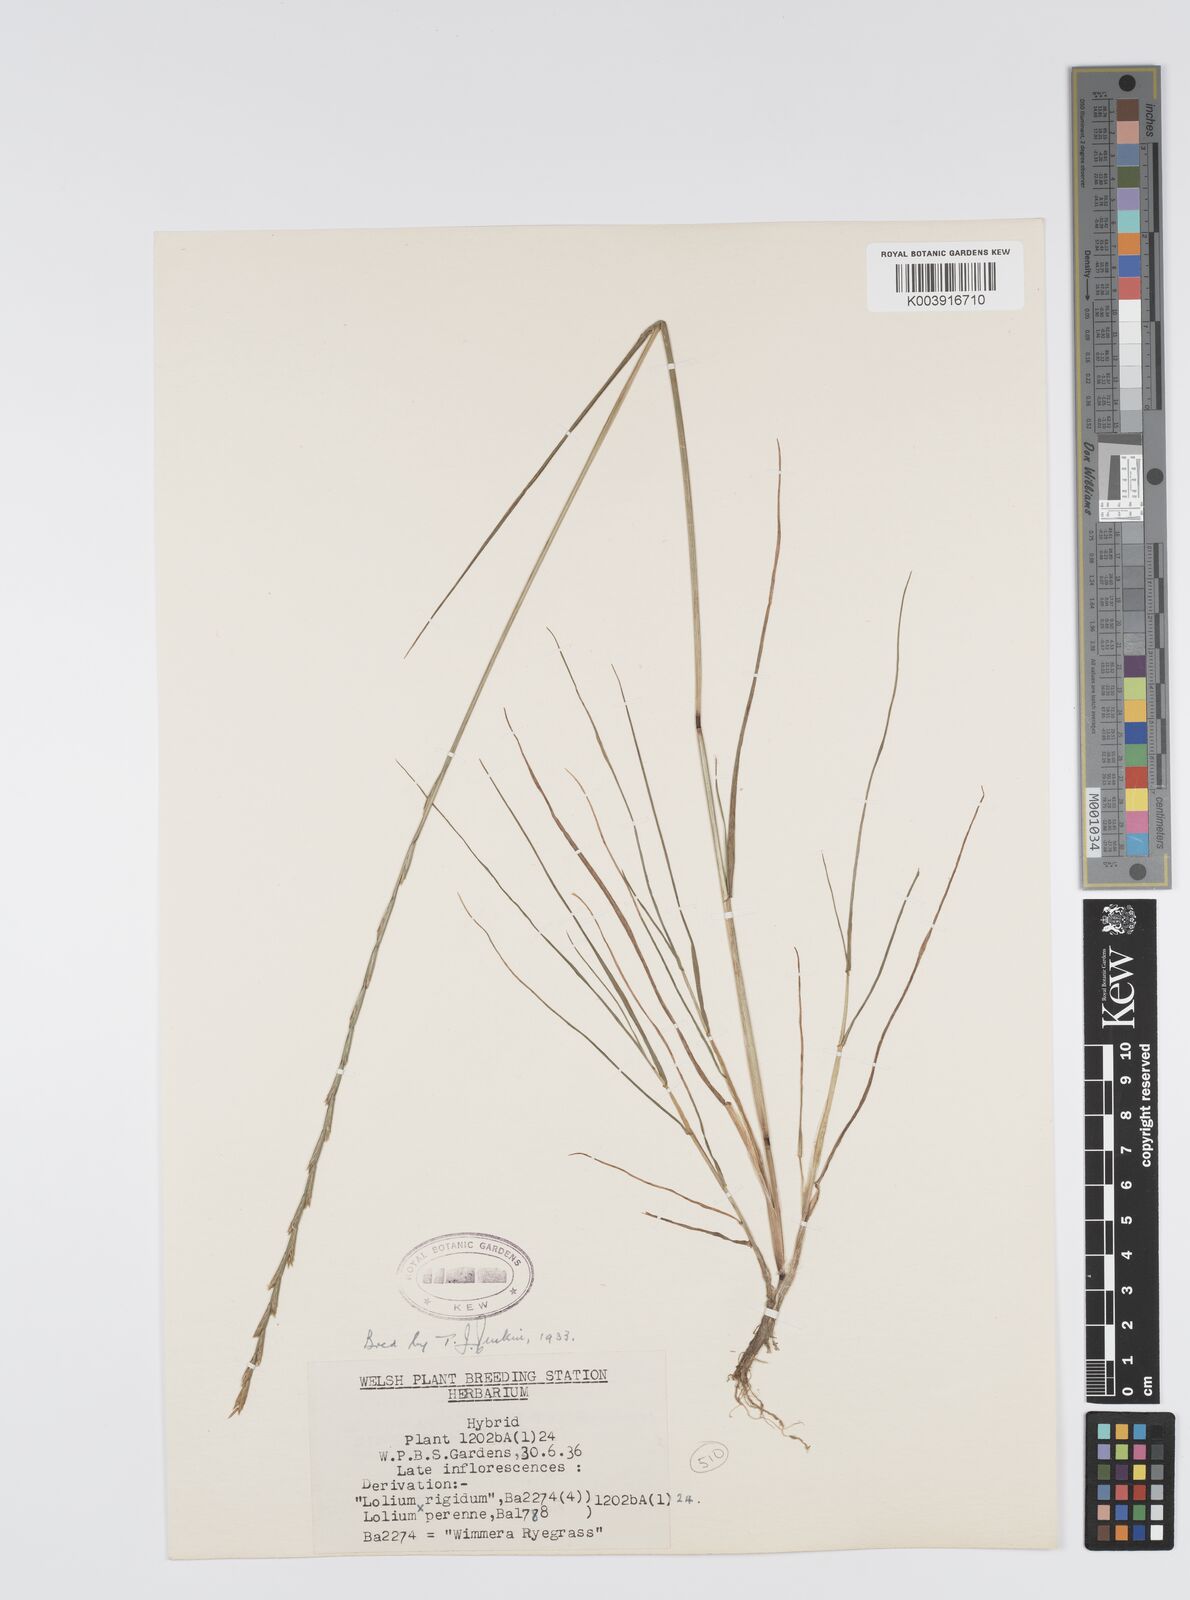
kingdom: Plantae
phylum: Tracheophyta
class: Liliopsida
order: Poales
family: Poaceae
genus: Lolium
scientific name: Lolium perenne
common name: Perennial ryegrass
